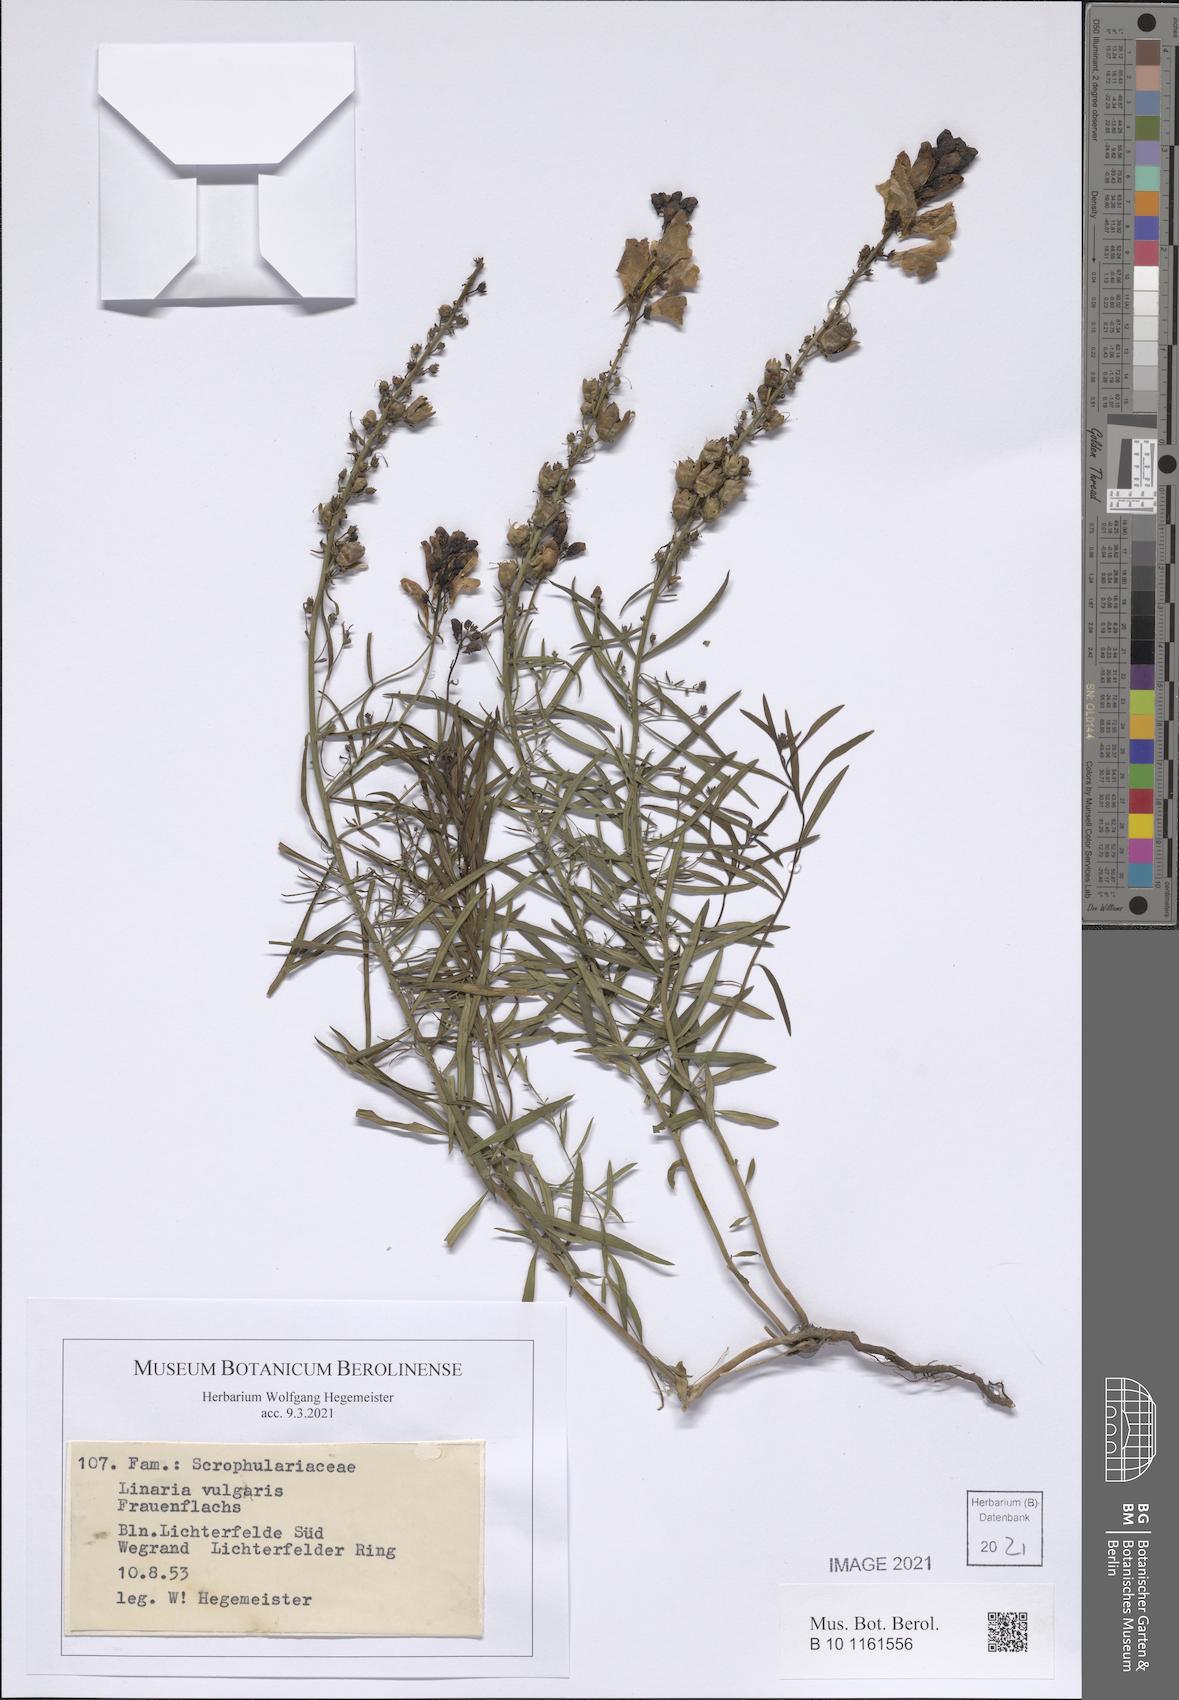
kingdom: Plantae
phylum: Tracheophyta
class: Magnoliopsida
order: Lamiales
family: Plantaginaceae
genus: Linaria
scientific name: Linaria vulgaris
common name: Butter and eggs
